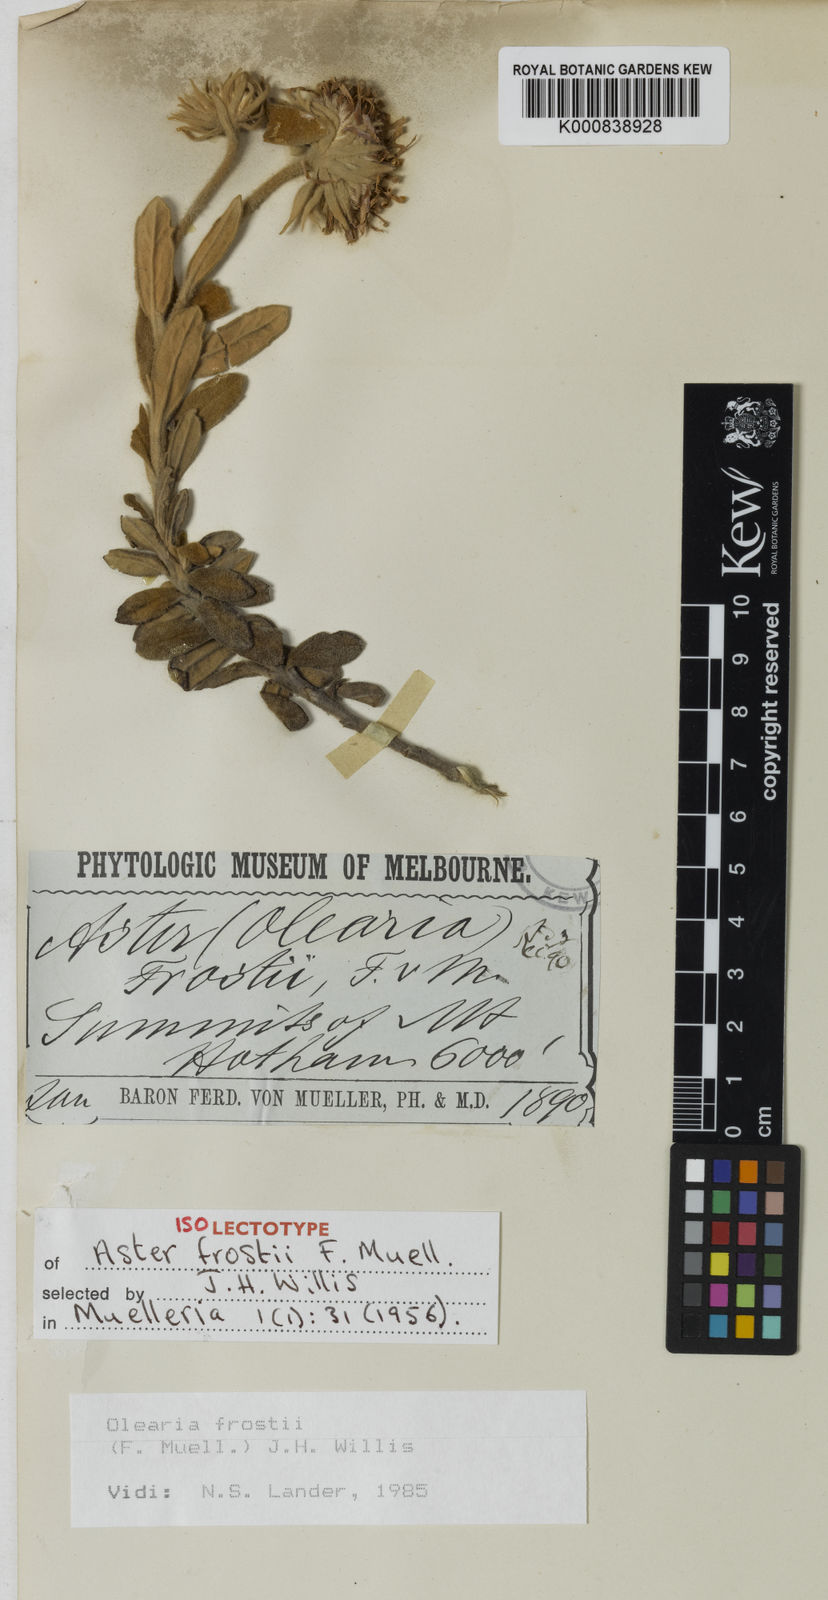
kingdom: Plantae
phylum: Tracheophyta
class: Magnoliopsida
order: Asterales
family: Asteraceae
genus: Olearia
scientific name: Olearia frostii
